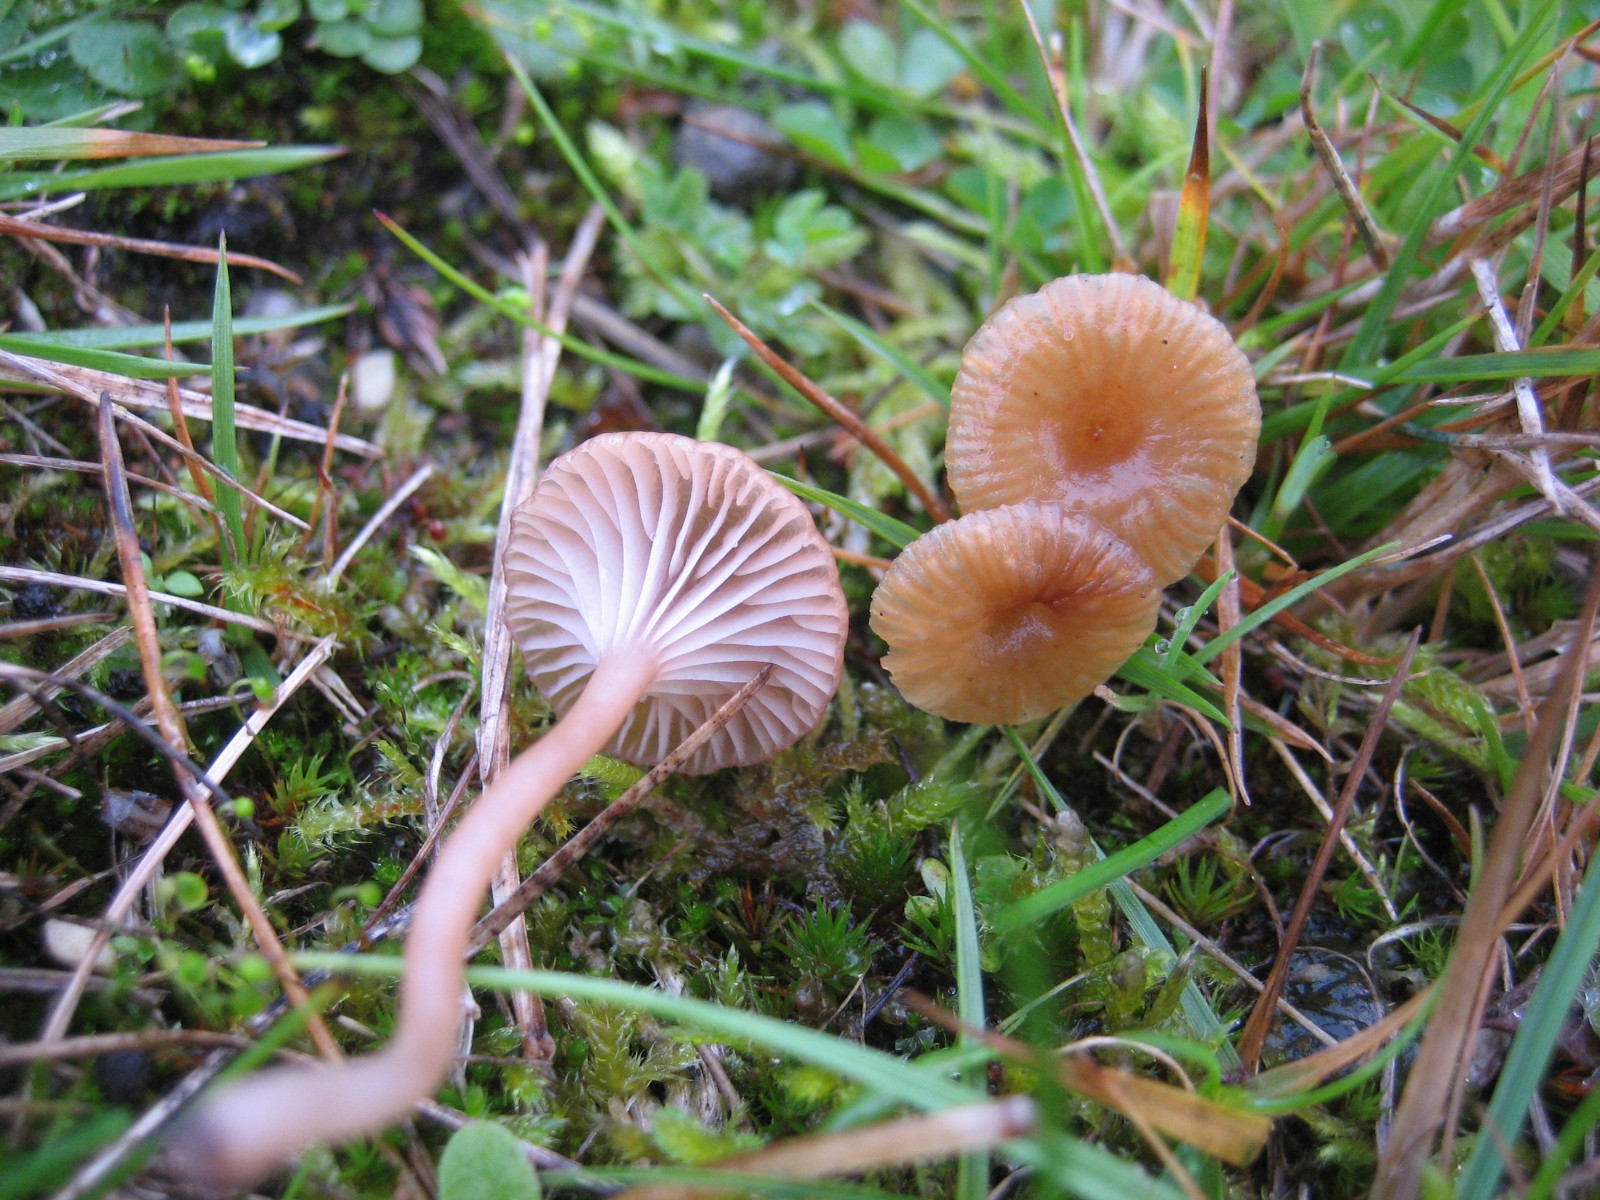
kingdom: Fungi
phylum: Basidiomycota
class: Agaricomycetes
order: Agaricales
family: Tricholomataceae
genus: Omphalina
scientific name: Omphalina pyxidata
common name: rødbrun navlehat
